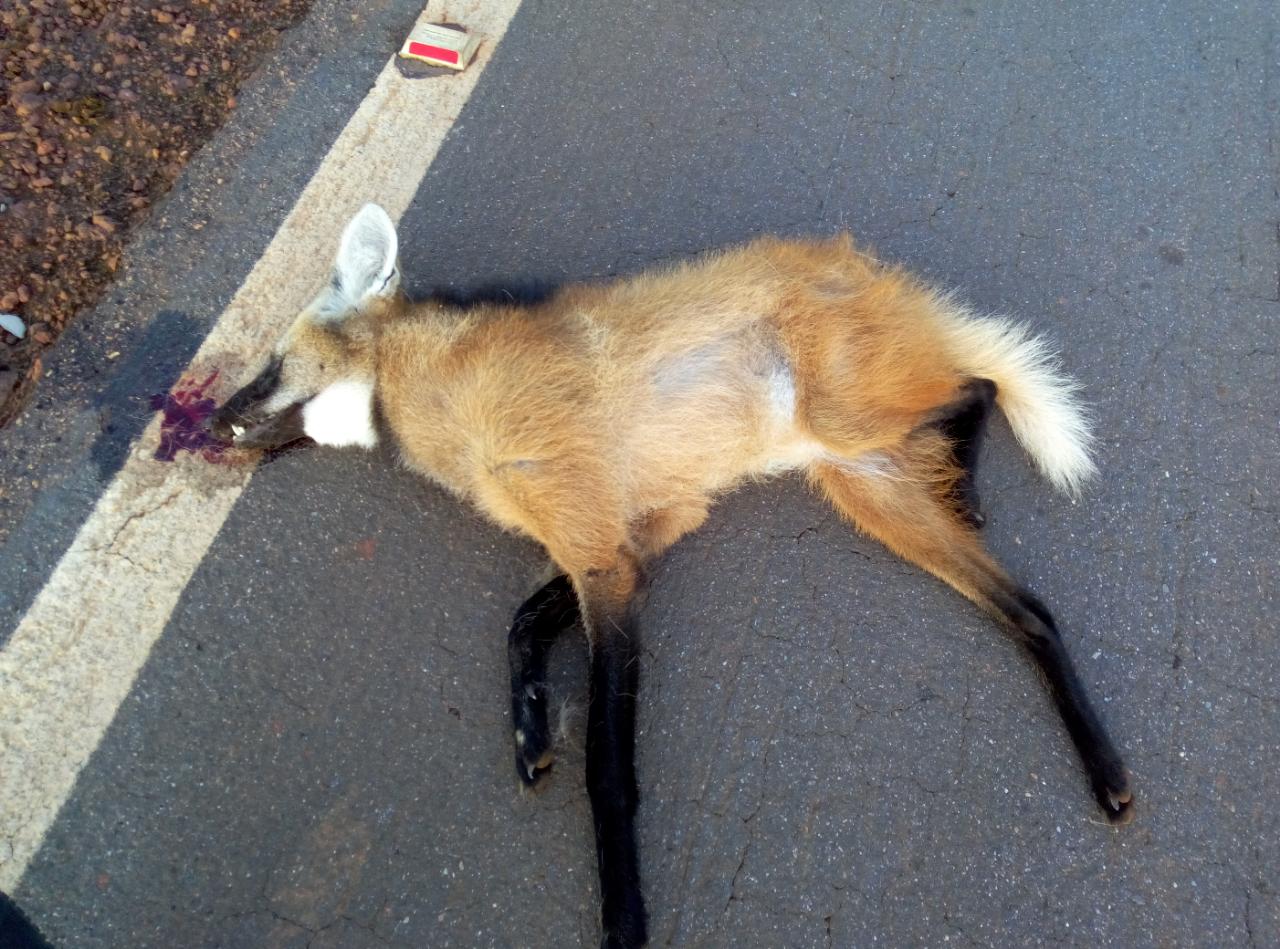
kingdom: Animalia
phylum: Chordata
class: Mammalia
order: Carnivora
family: Canidae
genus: Chrysocyon
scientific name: Chrysocyon brachyurus
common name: Maned wolf
